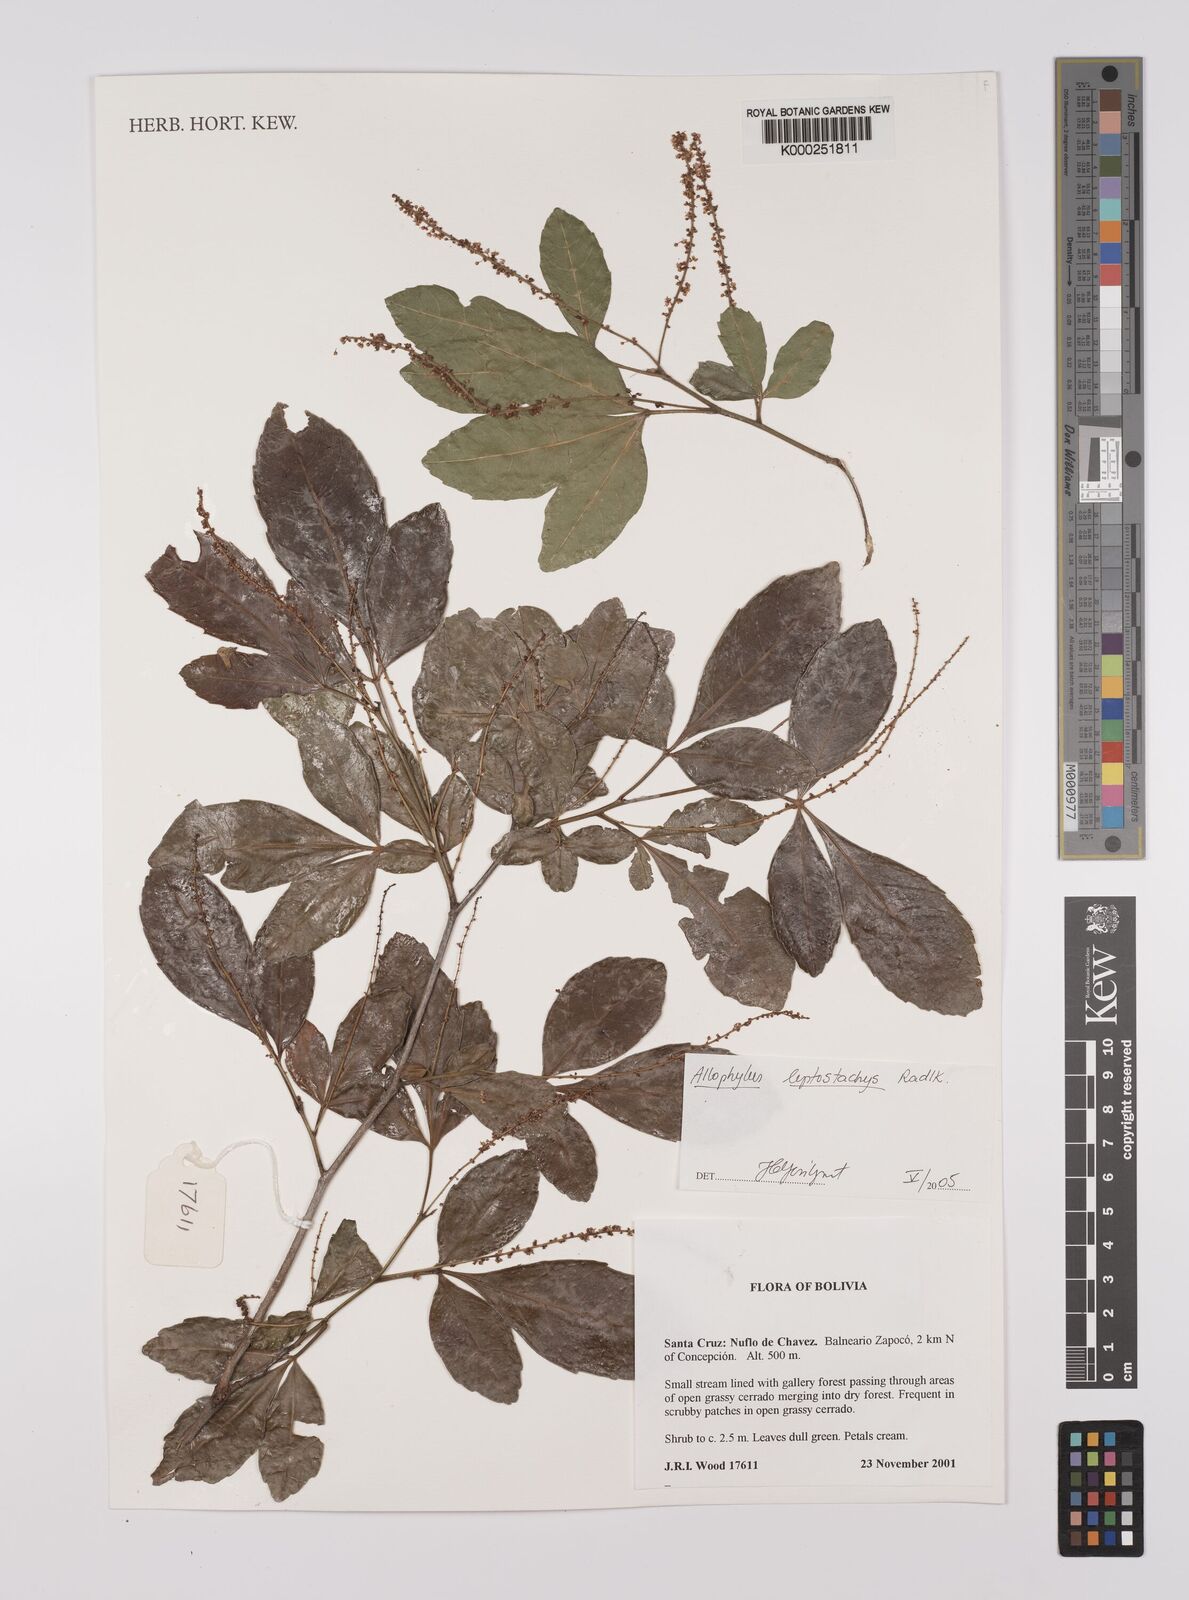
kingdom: Plantae
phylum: Tracheophyta
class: Magnoliopsida
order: Sapindales
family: Sapindaceae
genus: Allophylus
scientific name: Allophylus leptostachys
